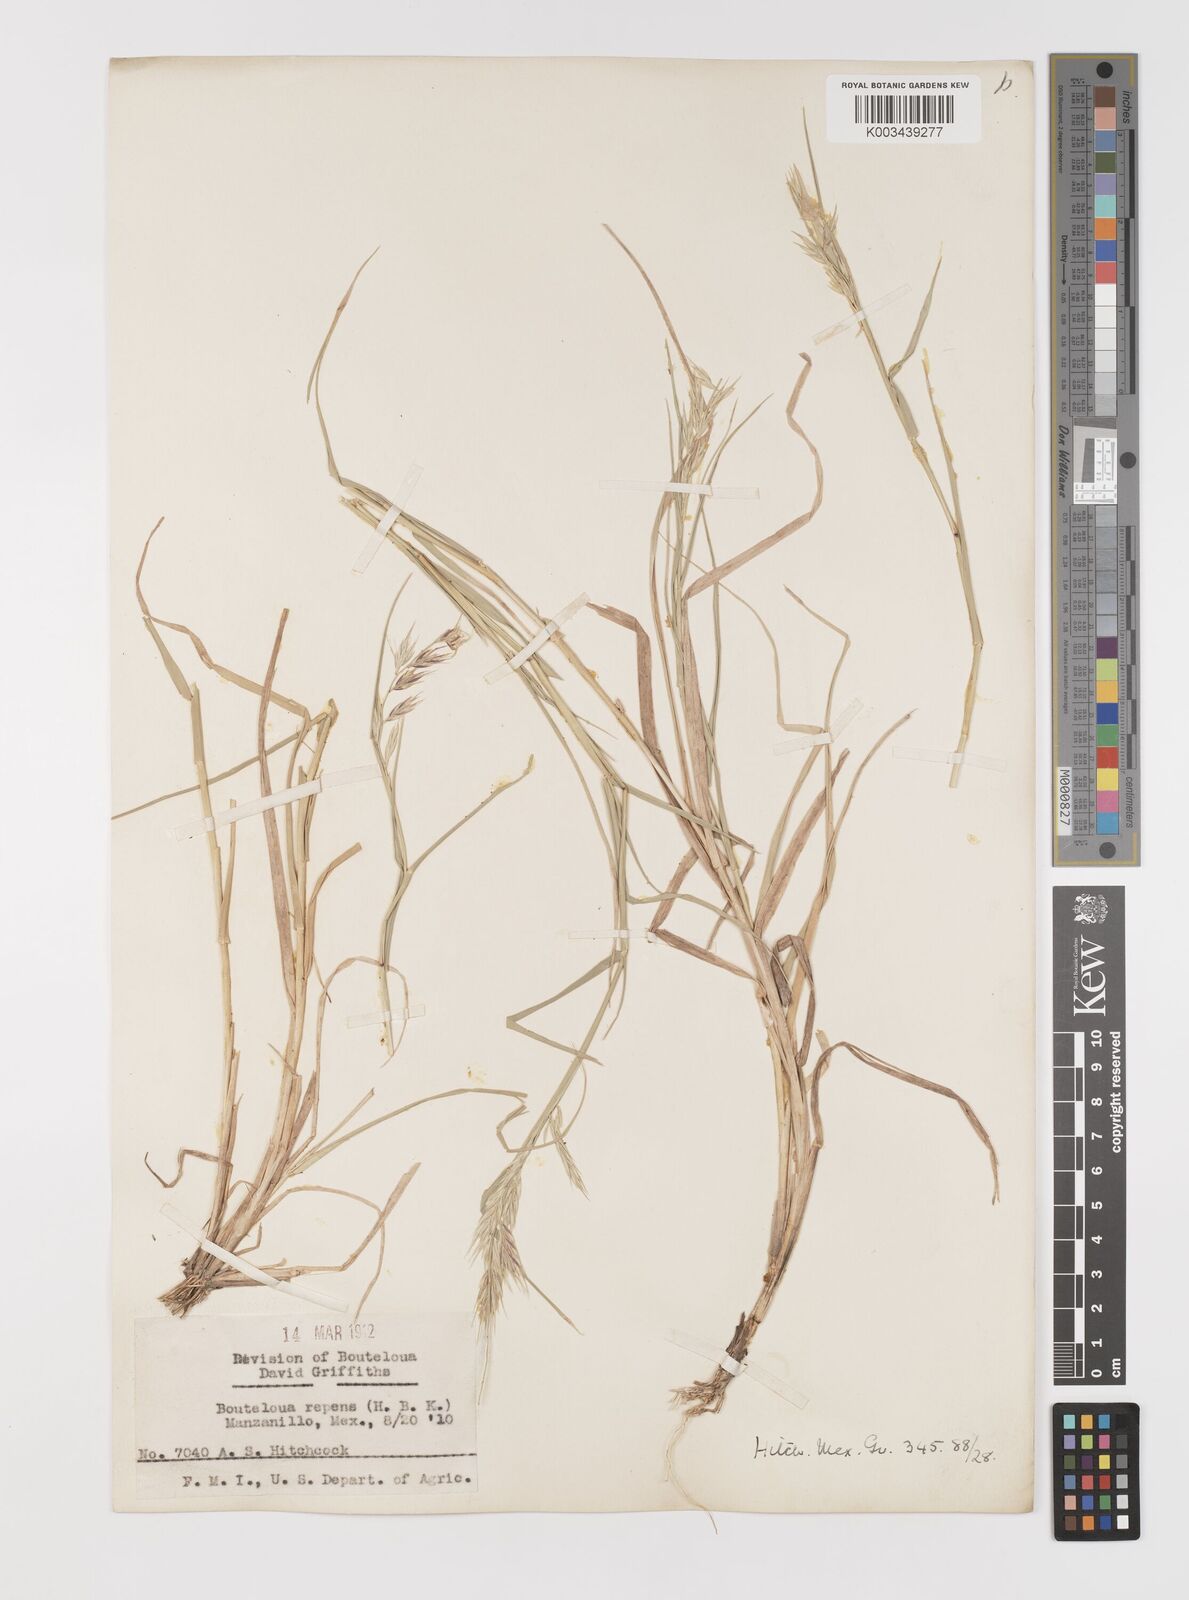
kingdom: Plantae
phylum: Tracheophyta
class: Liliopsida
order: Poales
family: Poaceae
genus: Bouteloua
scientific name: Bouteloua repens
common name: Slender grama
